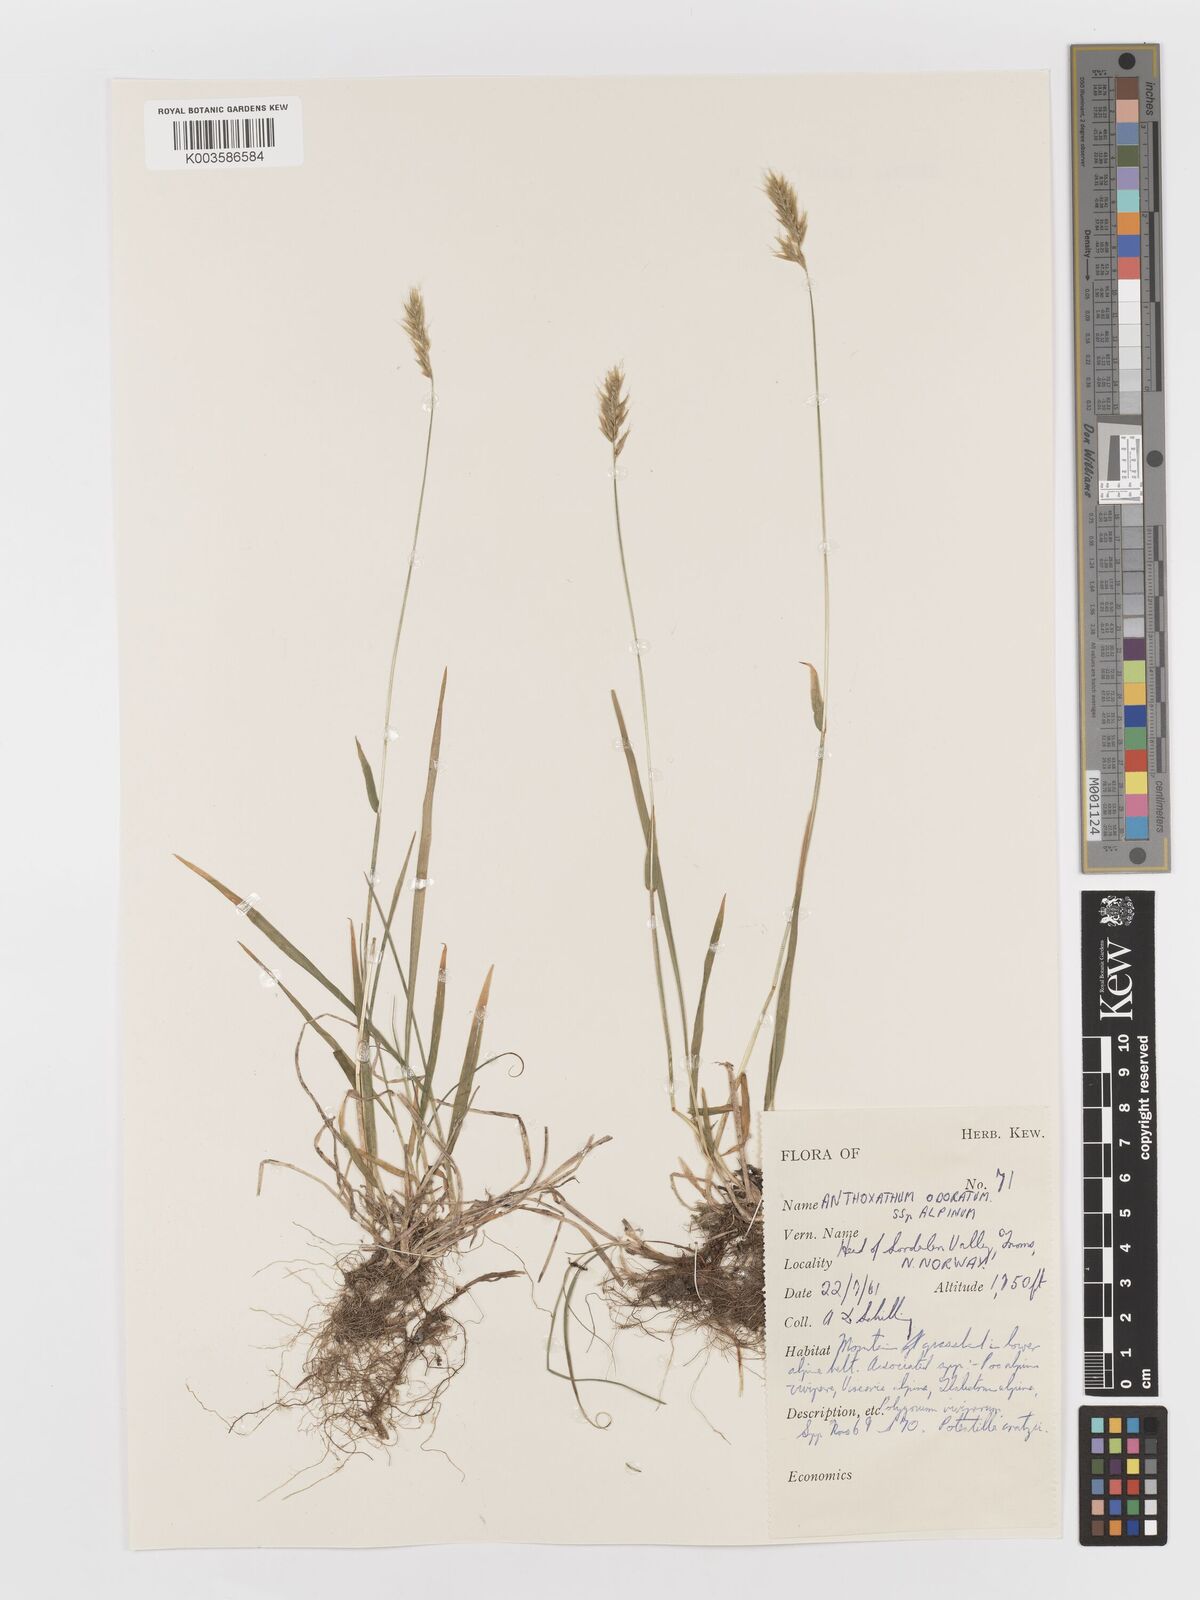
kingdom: Plantae
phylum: Tracheophyta
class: Liliopsida
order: Poales
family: Poaceae
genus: Anthoxanthum
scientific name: Anthoxanthum odoratum
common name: Sweet vernalgrass
